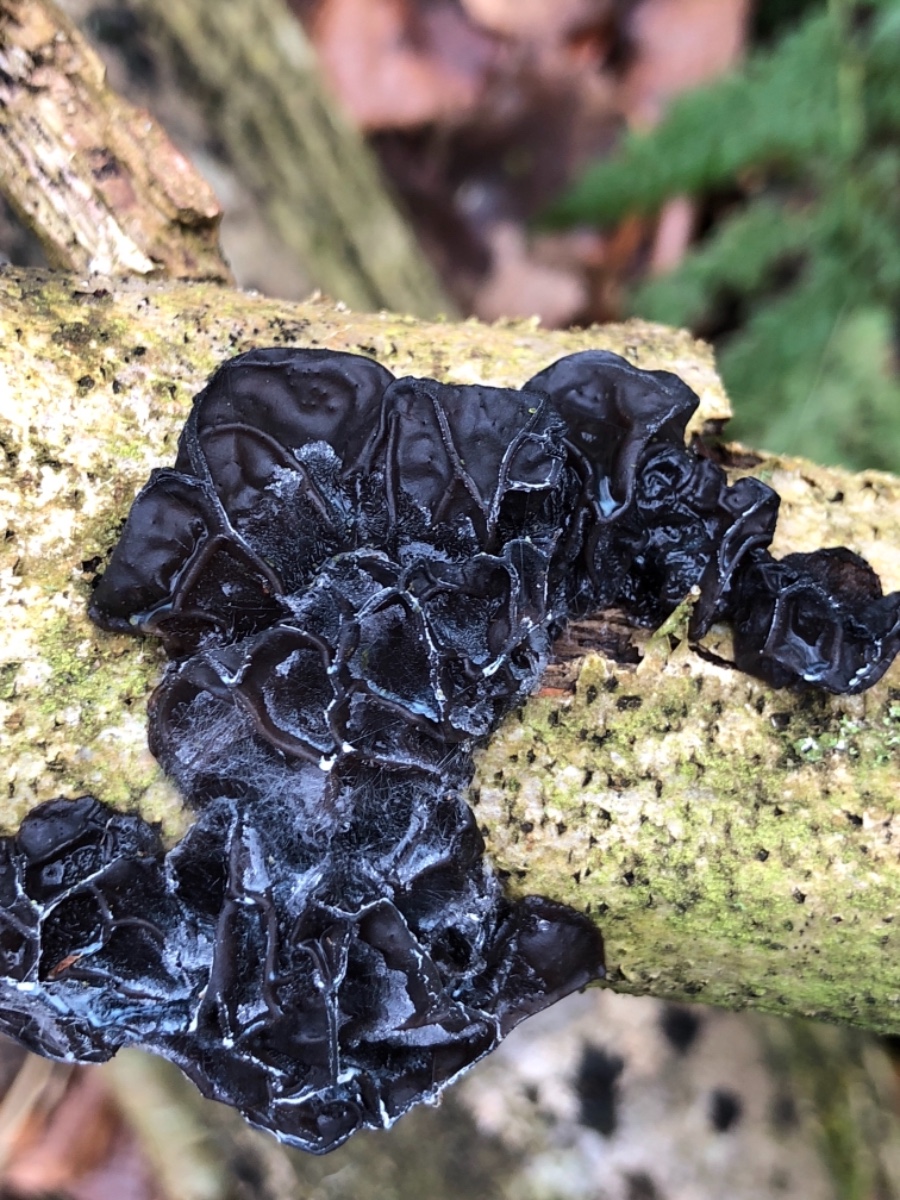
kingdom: Fungi
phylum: Basidiomycota
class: Agaricomycetes
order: Auriculariales
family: Auriculariaceae
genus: Exidia
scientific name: Exidia glandulosa
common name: ege-bævretop
